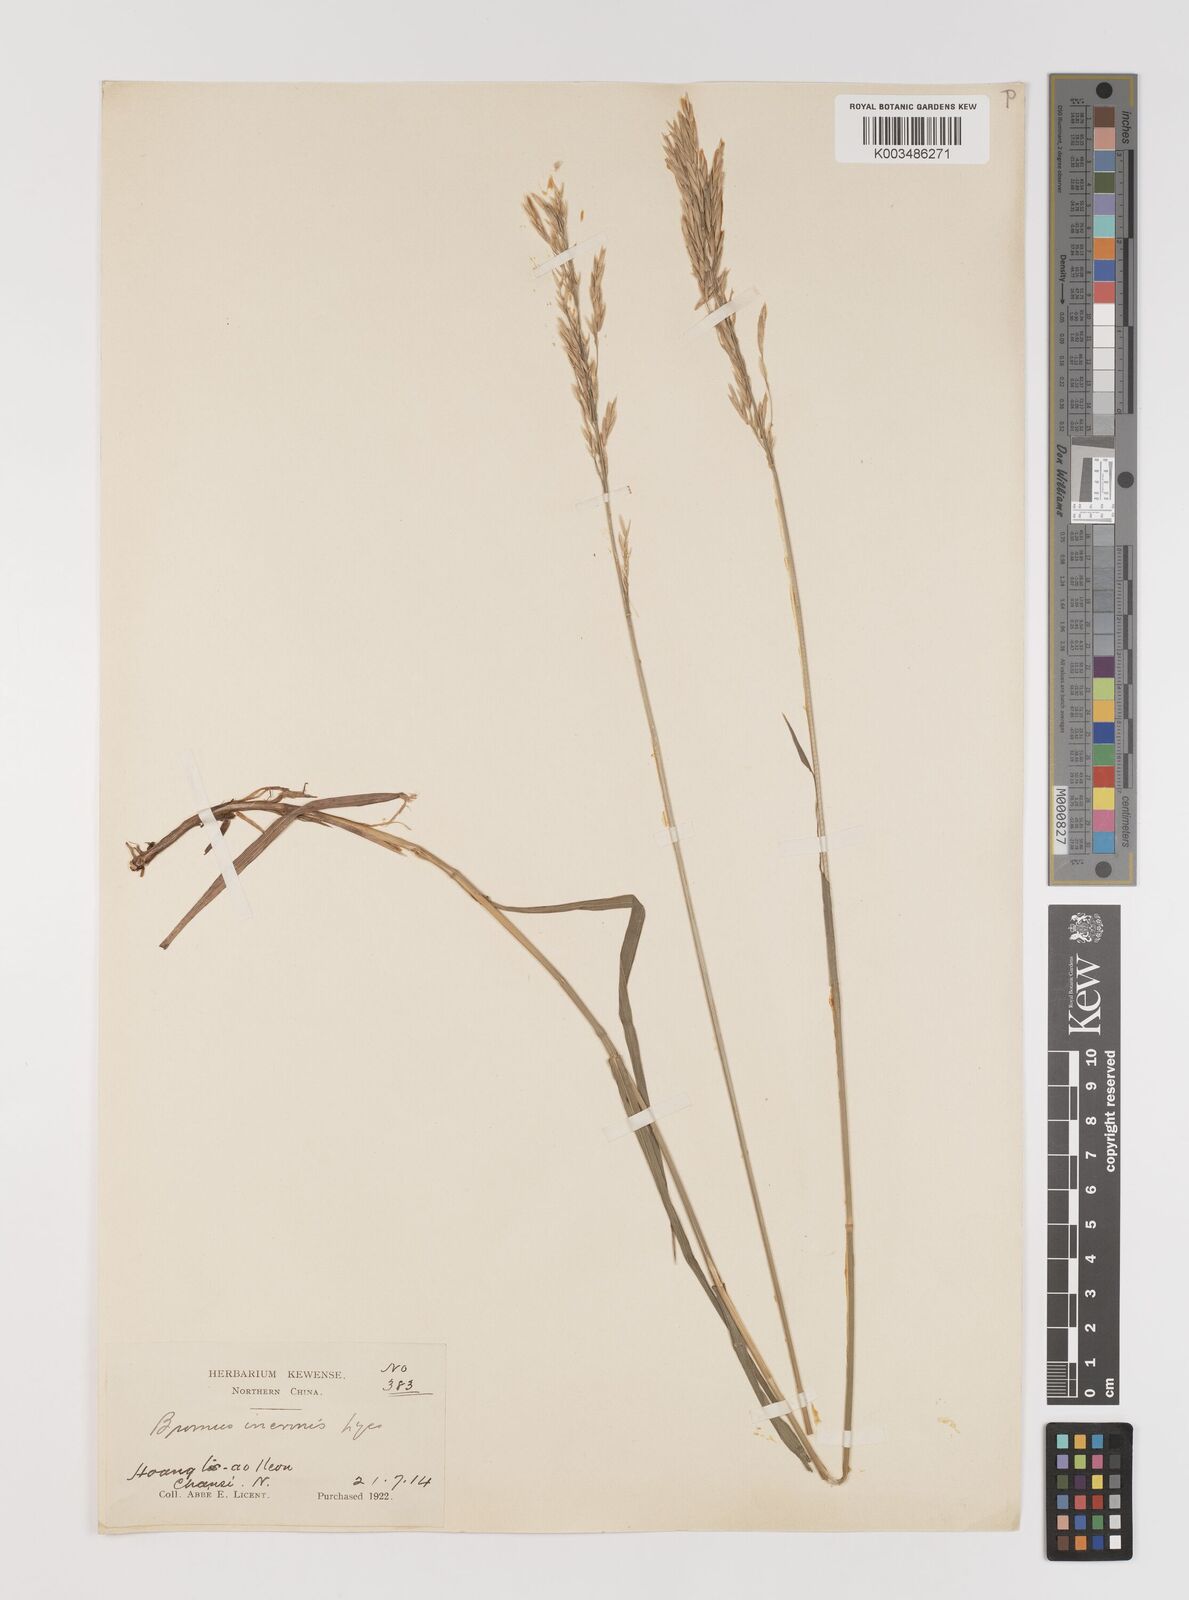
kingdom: Plantae
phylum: Tracheophyta
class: Liliopsida
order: Poales
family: Poaceae
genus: Bromus
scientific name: Bromus inermis
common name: Smooth brome
